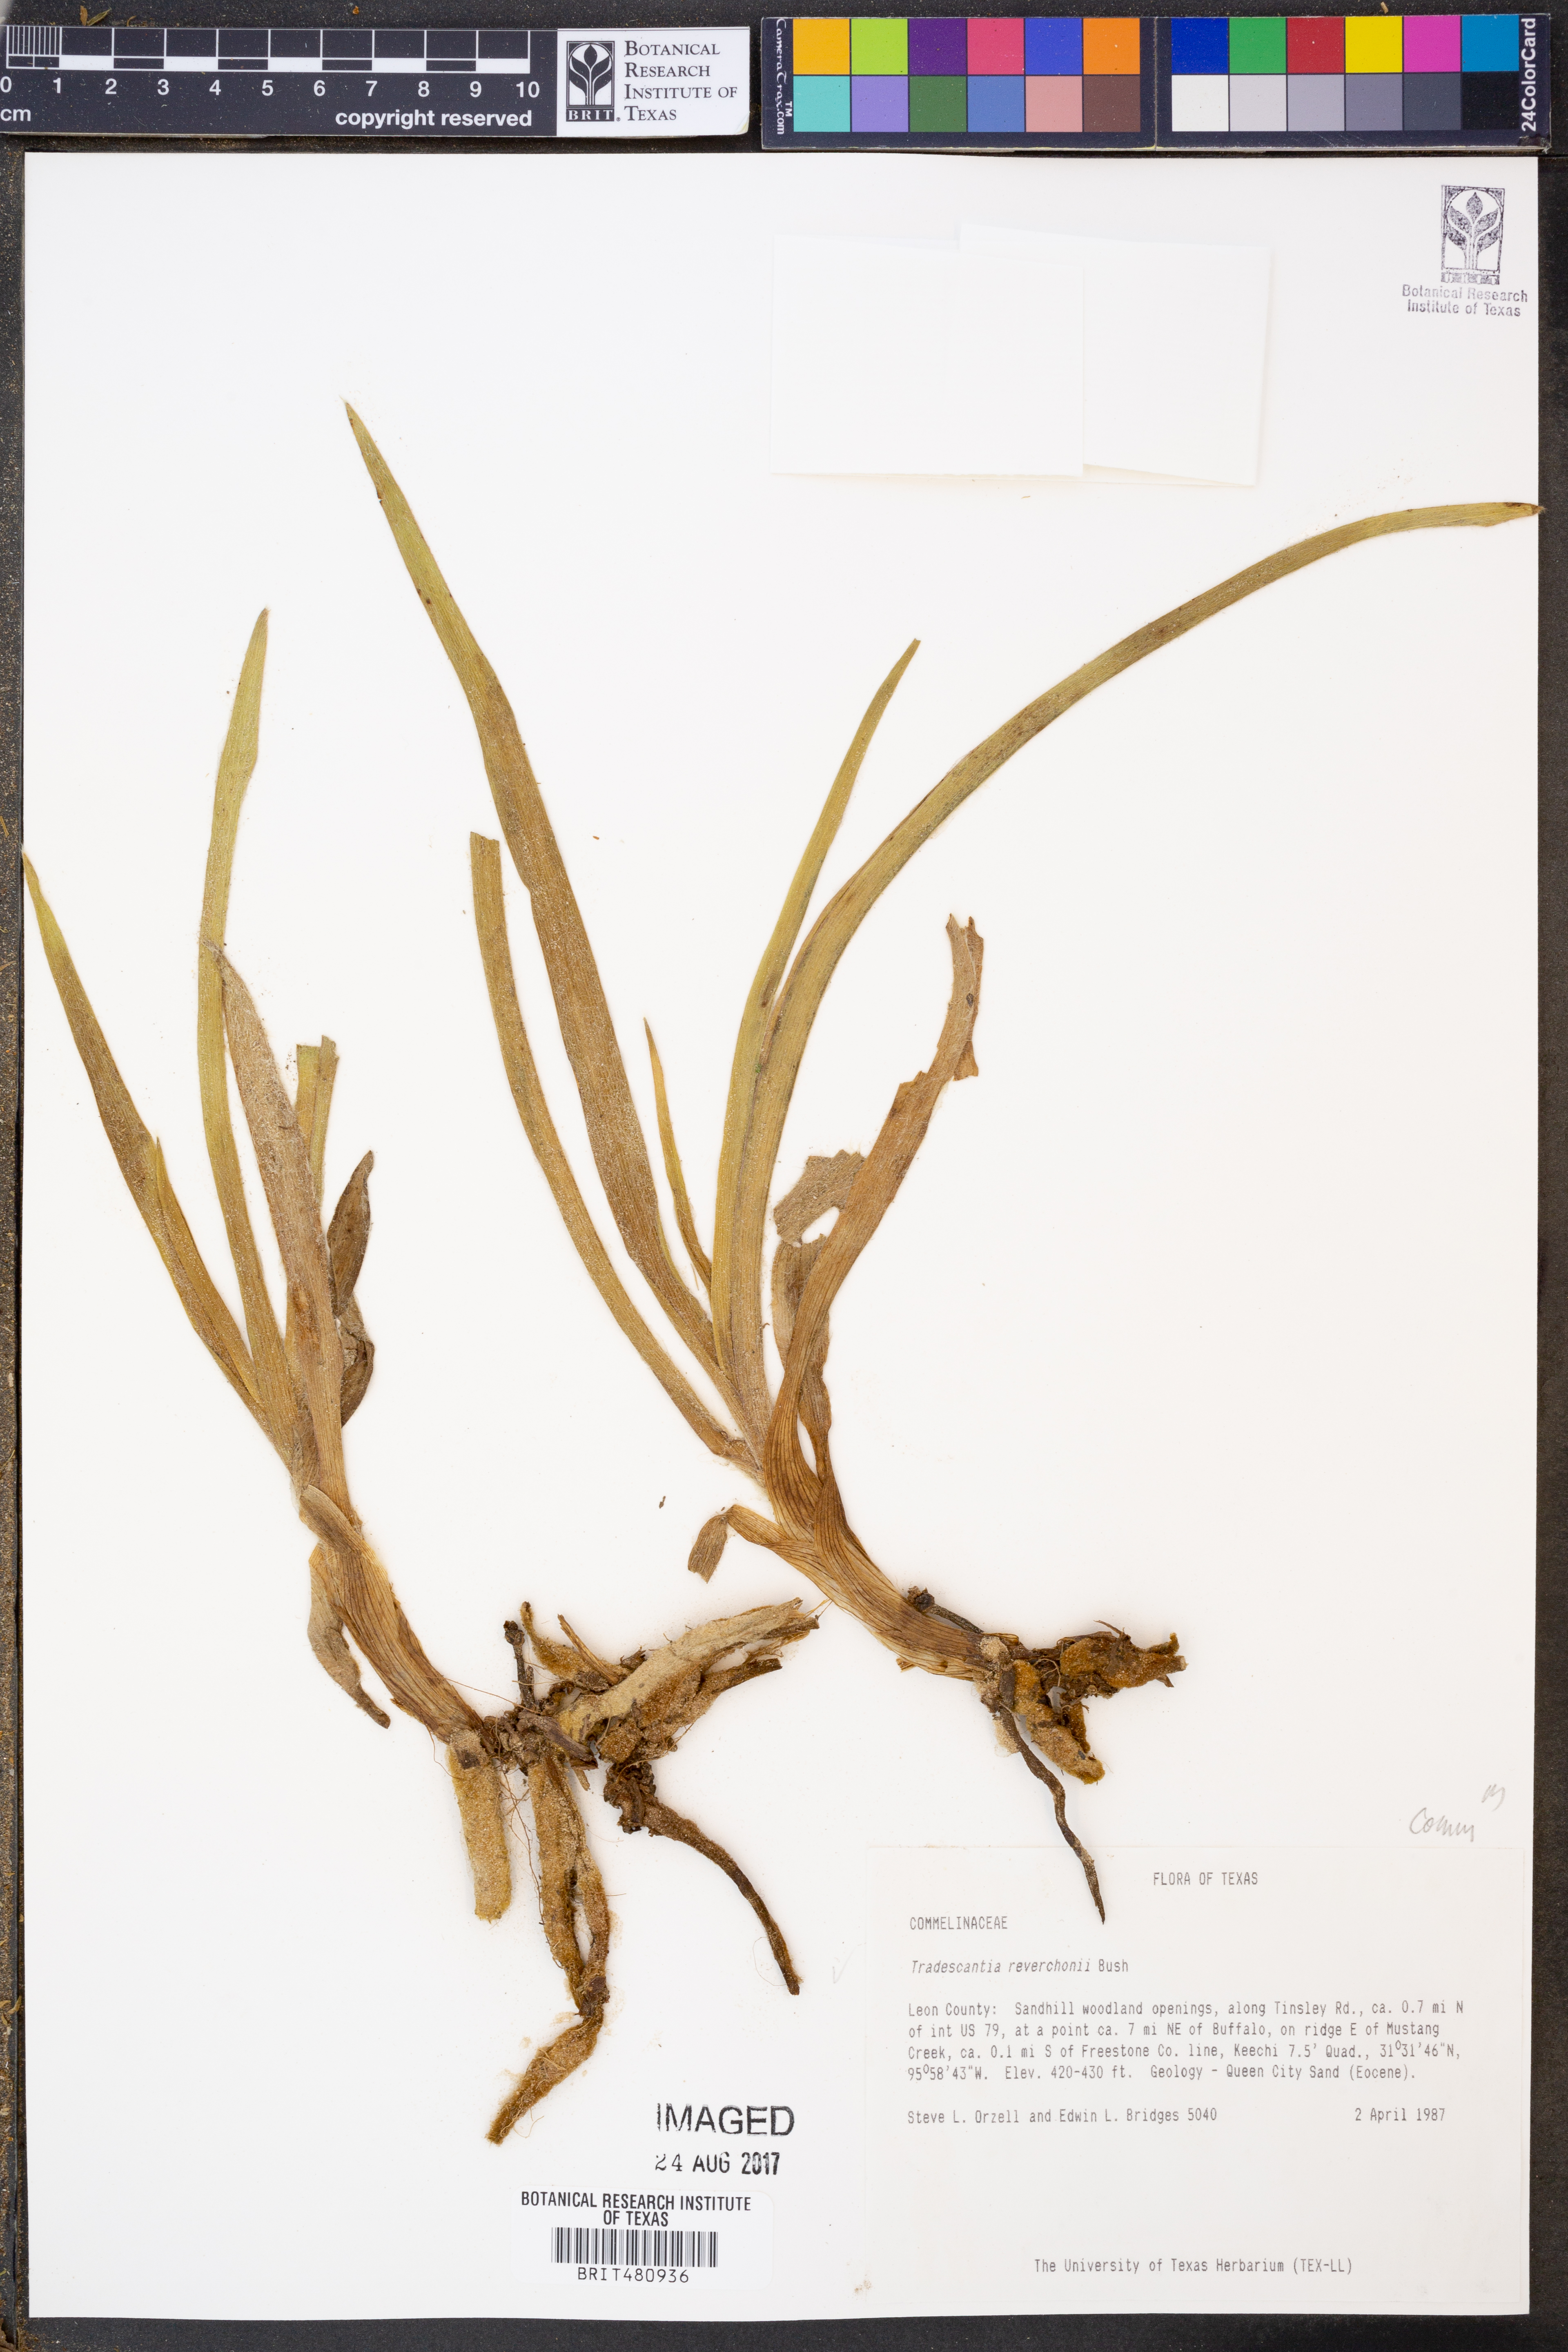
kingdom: Plantae
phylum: Tracheophyta
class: Liliopsida
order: Commelinales
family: Commelinaceae
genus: Tradescantia
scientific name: Tradescantia reverchonii
